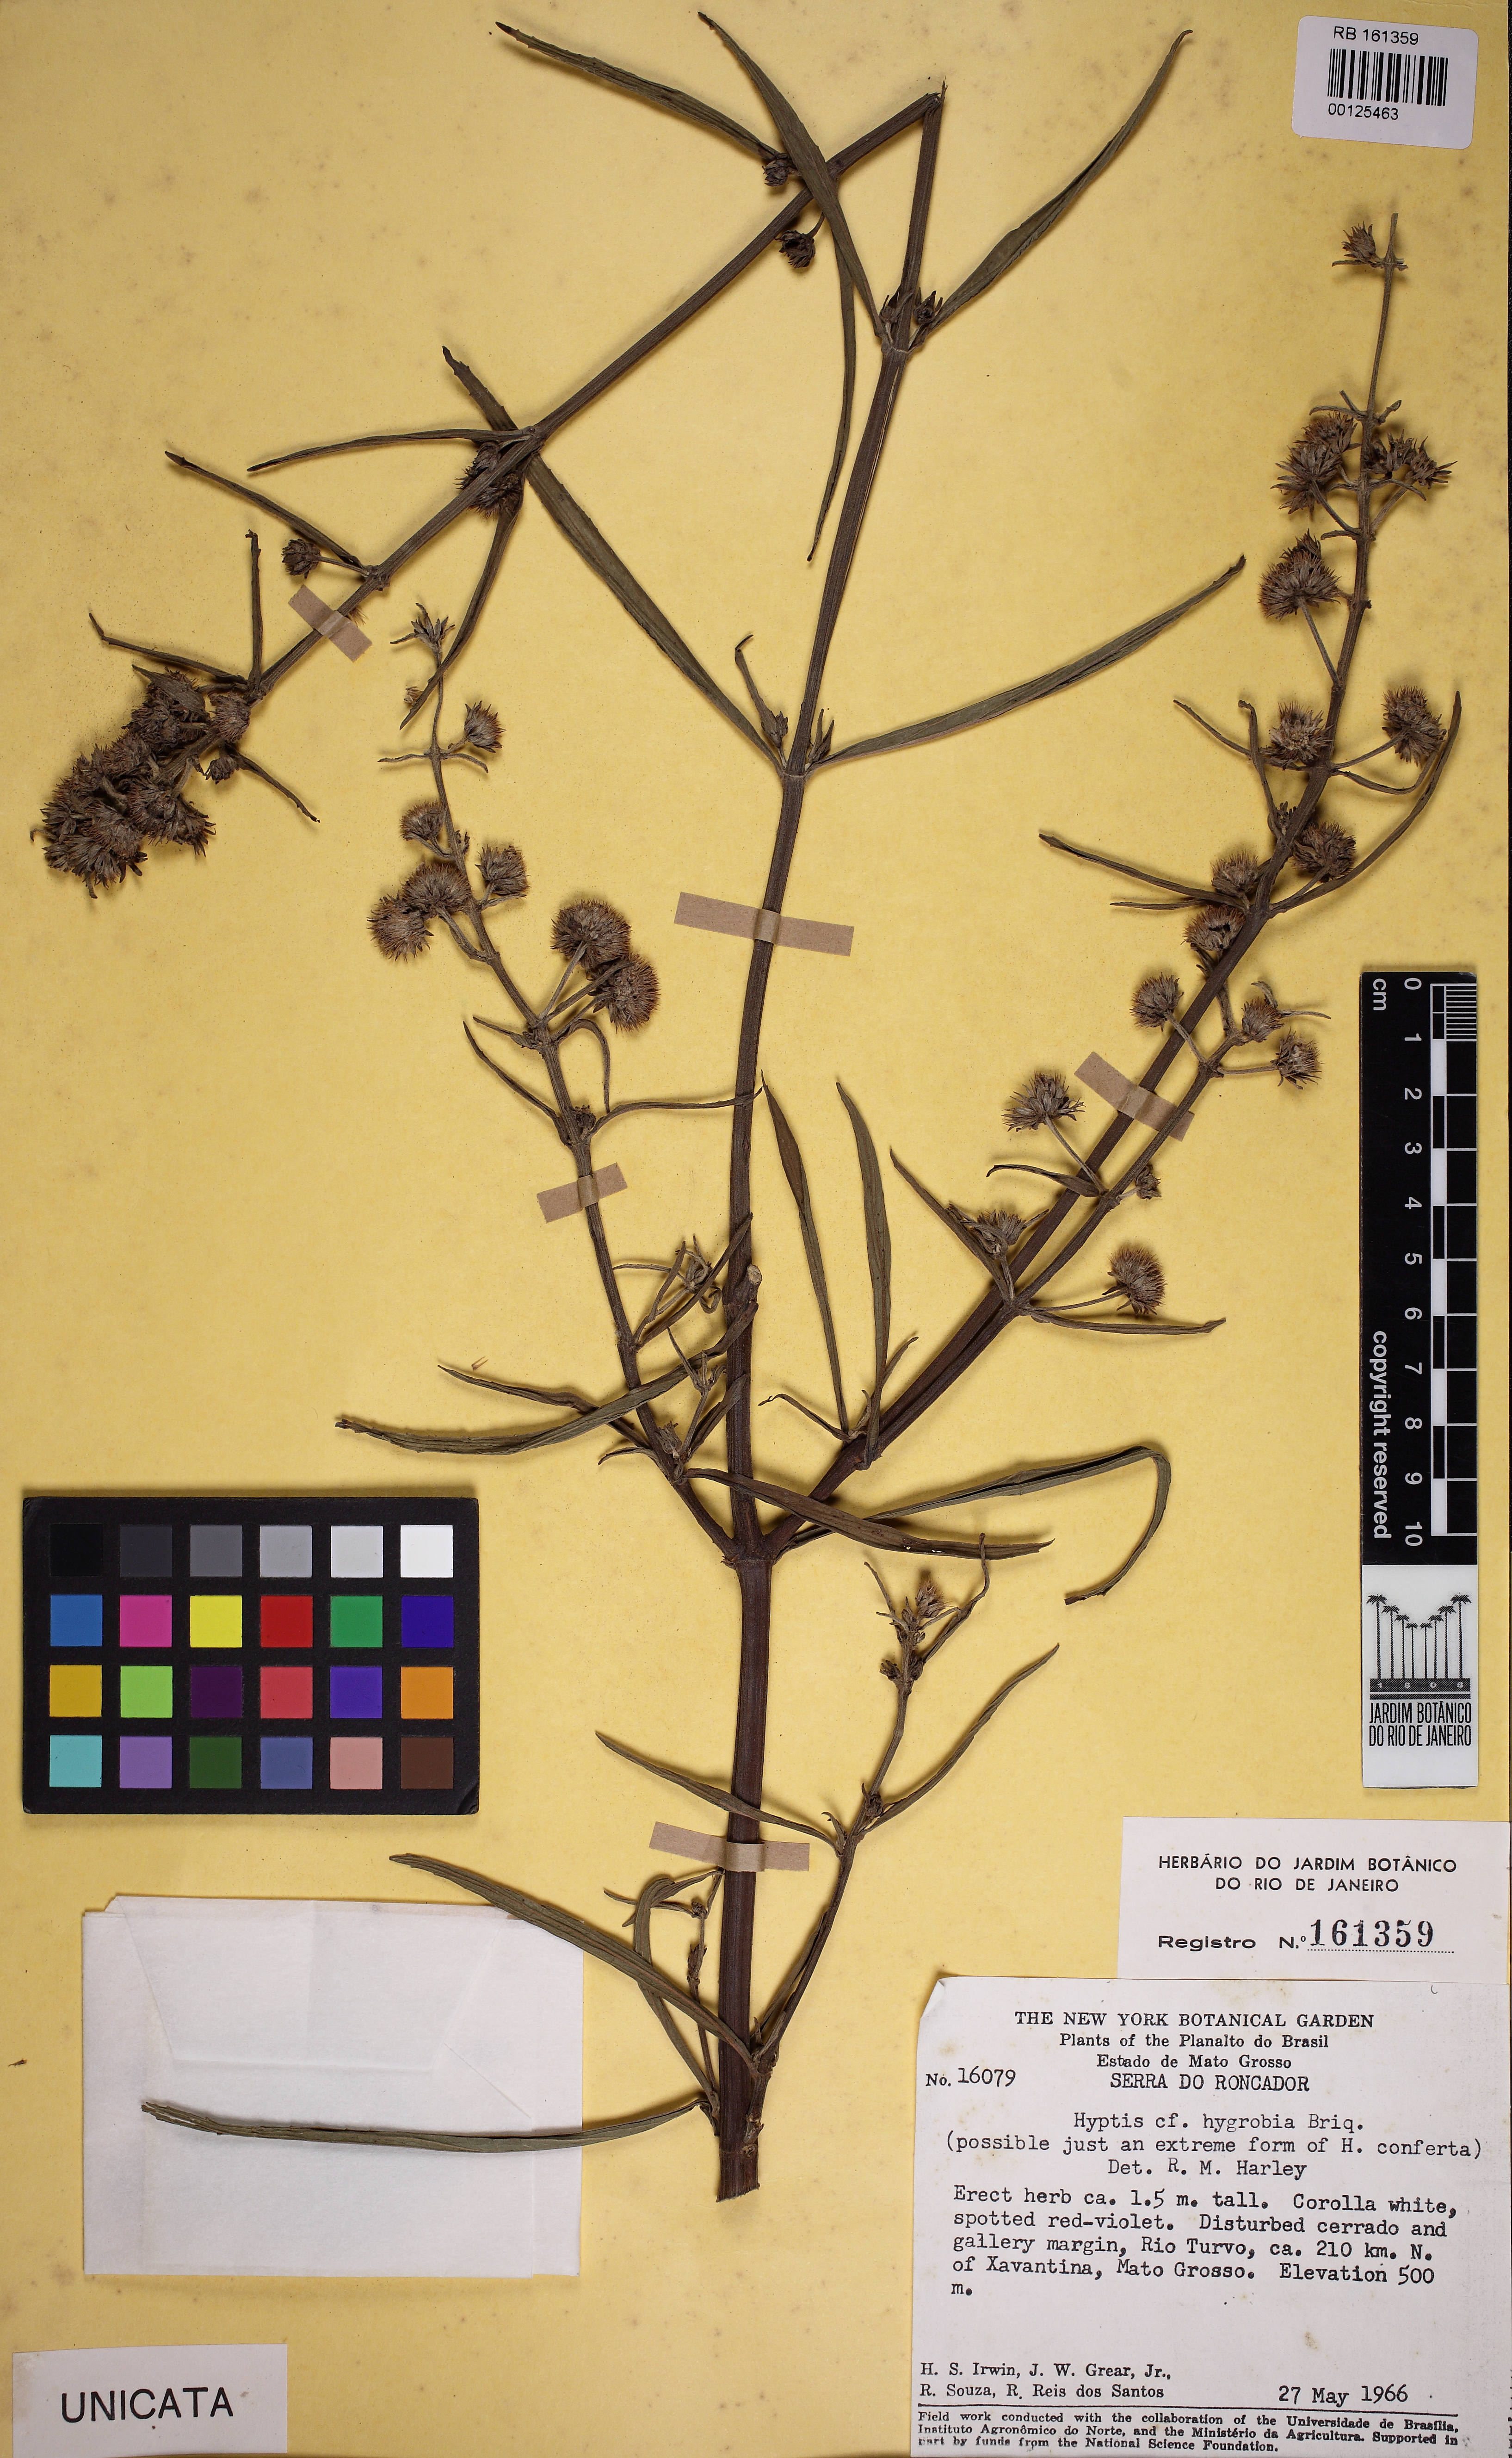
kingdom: Plantae
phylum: Tracheophyta
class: Magnoliopsida
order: Lamiales
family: Lamiaceae
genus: Hyptis
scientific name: Hyptis hygrobia
